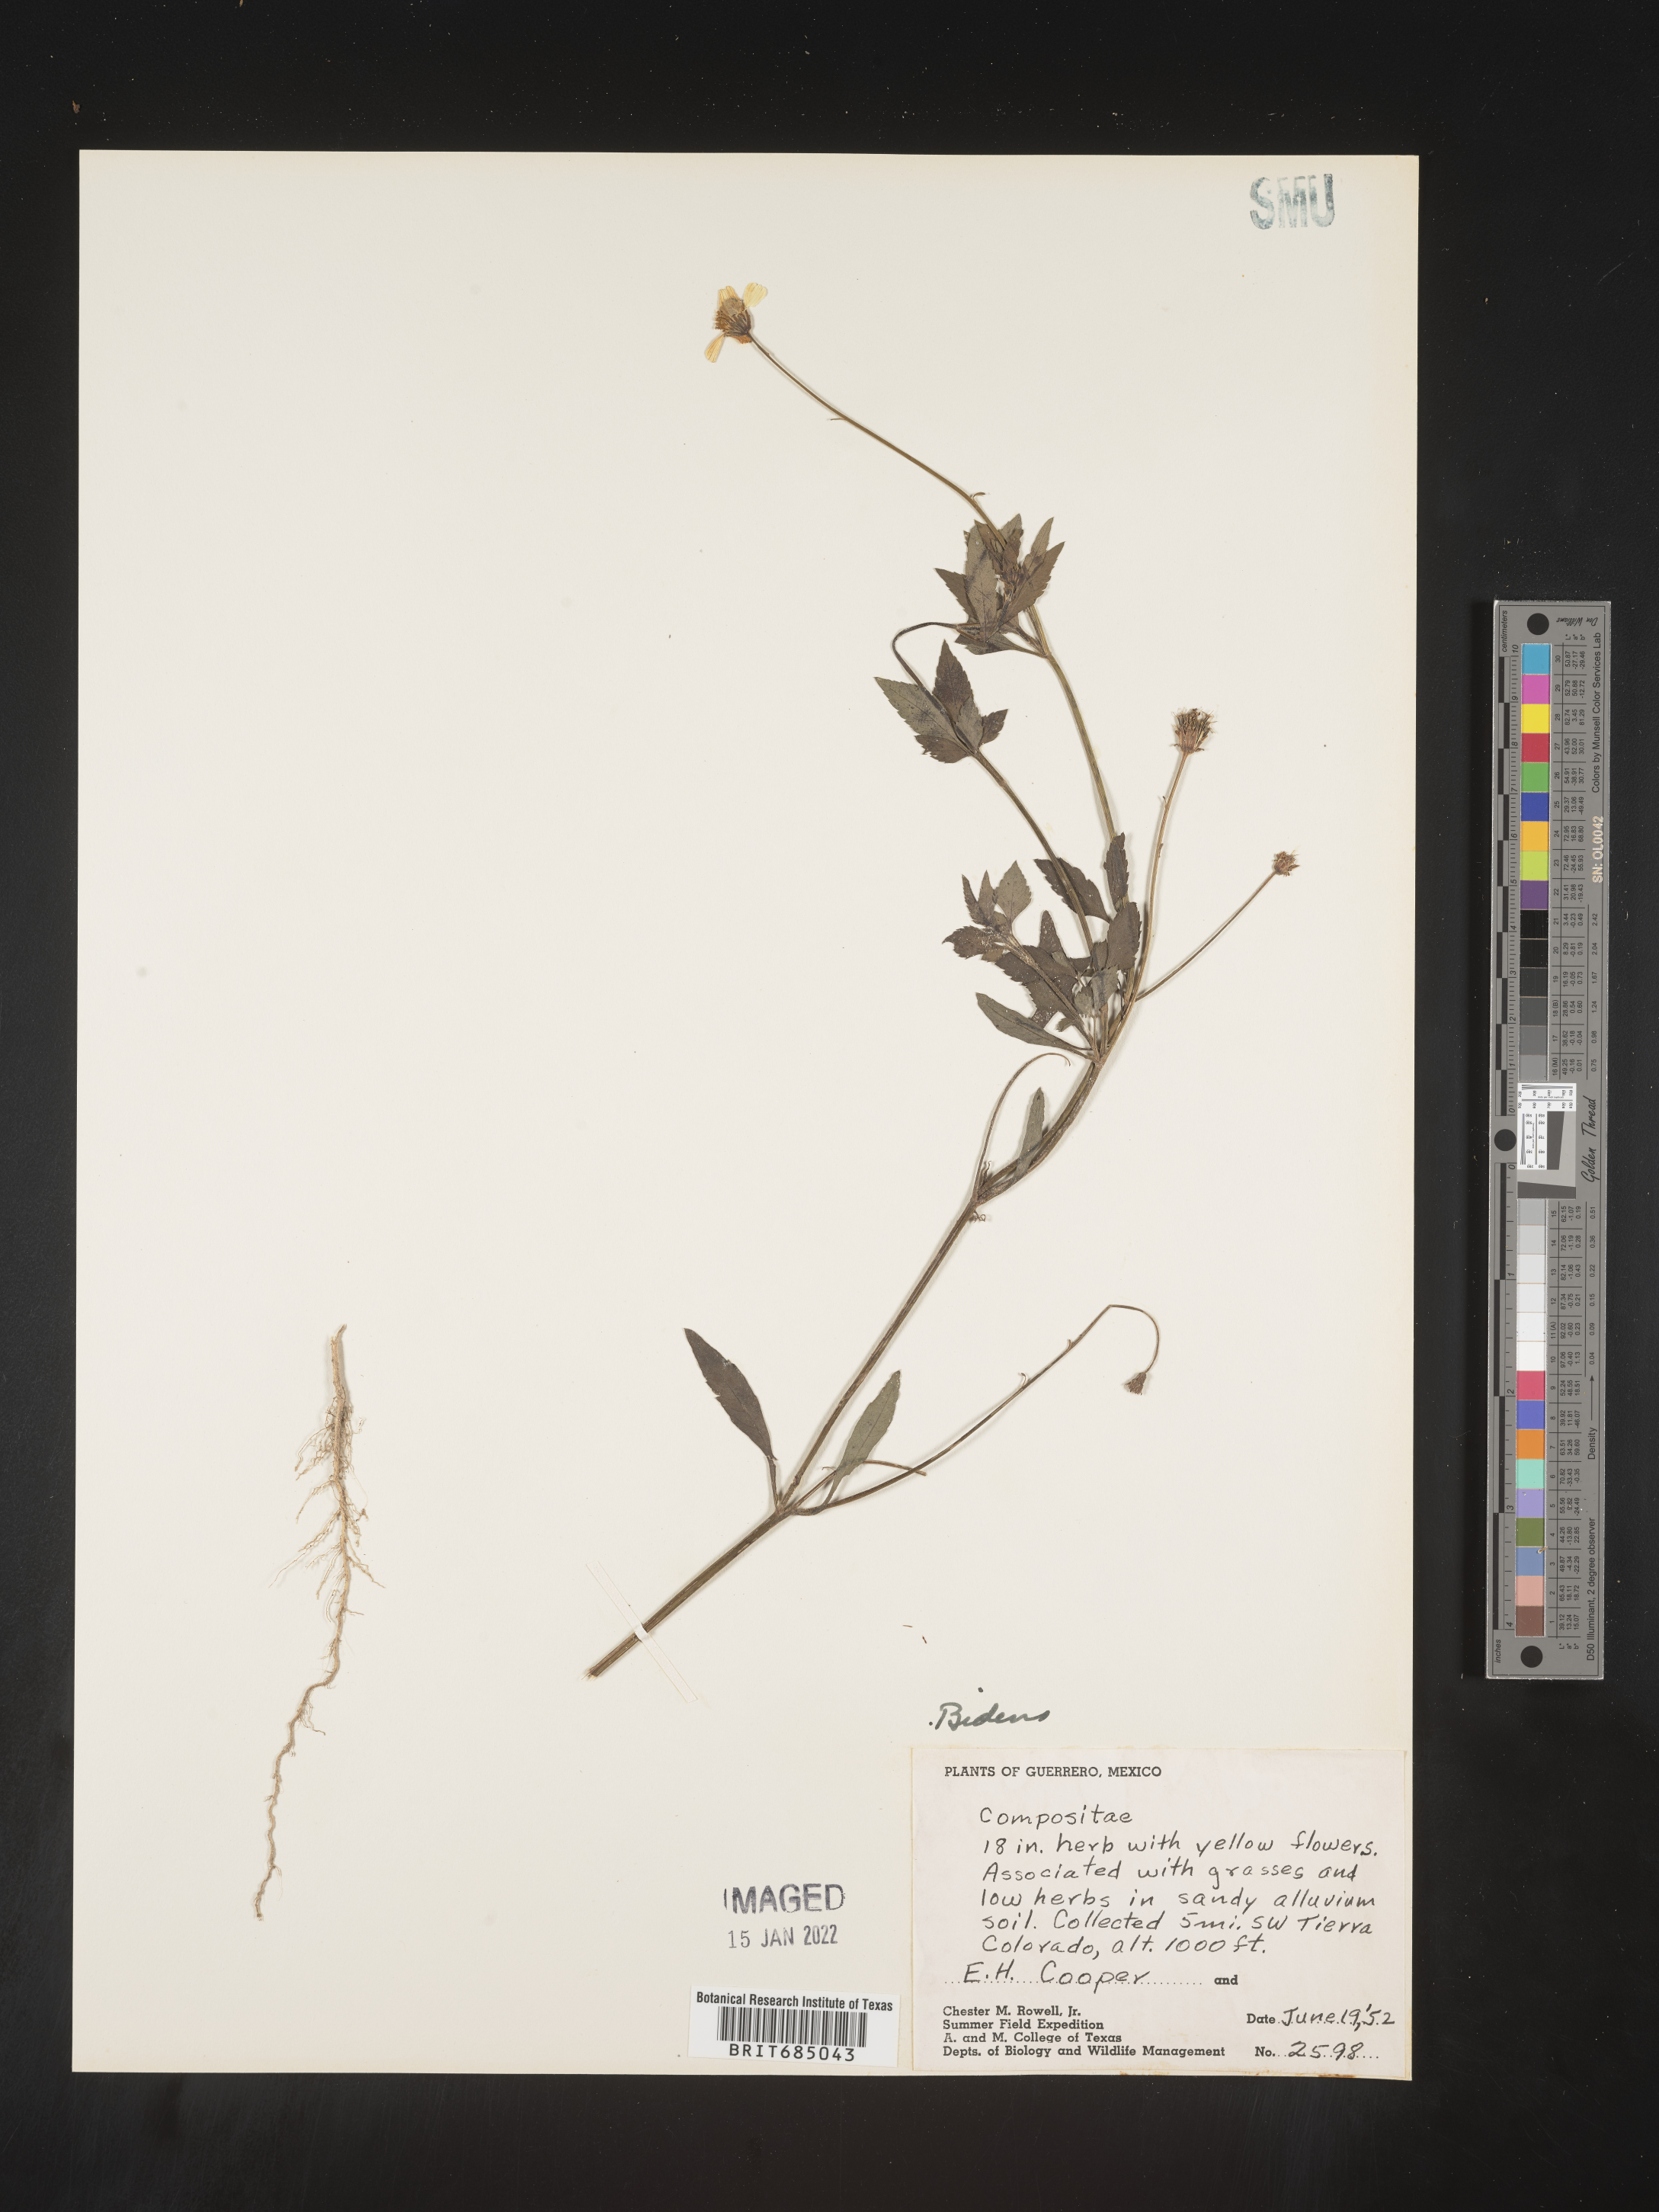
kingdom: Plantae
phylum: Tracheophyta
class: Magnoliopsida
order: Asterales
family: Asteraceae
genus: Bidens
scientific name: Bidens
